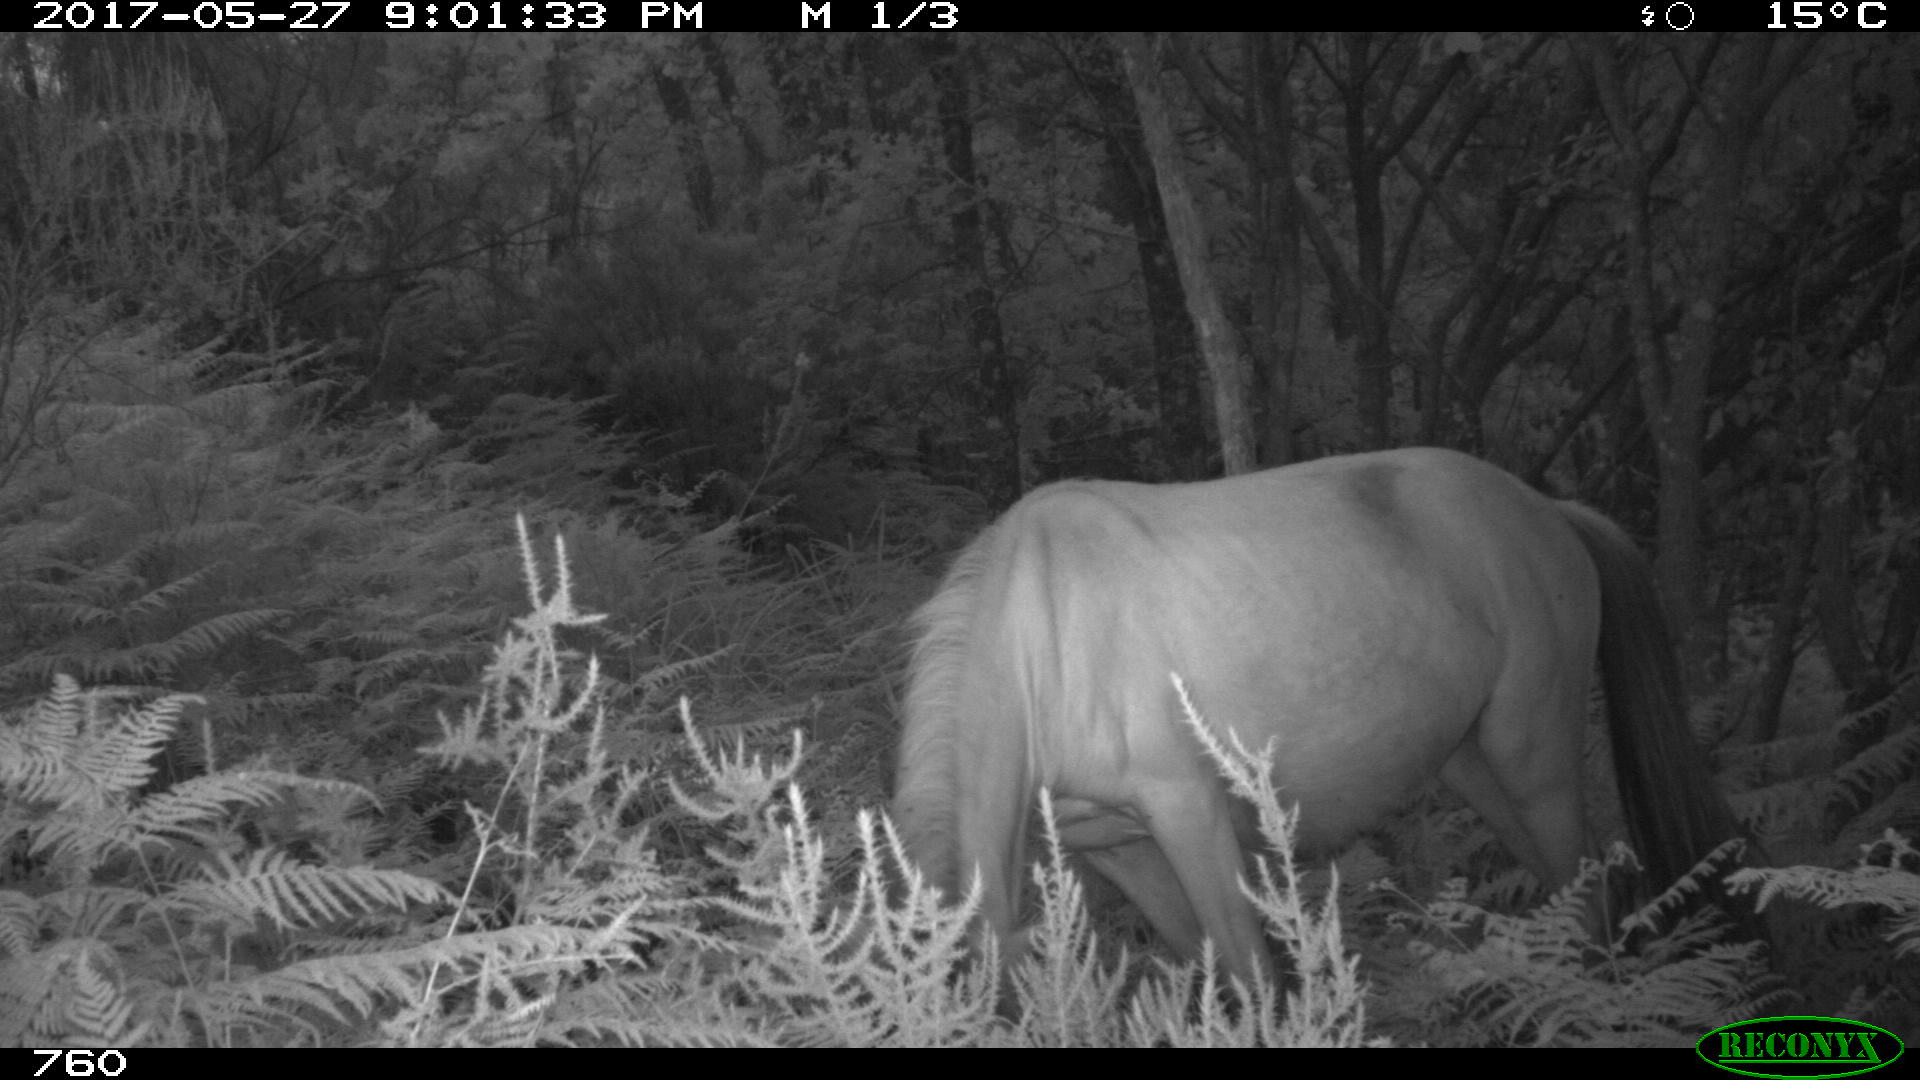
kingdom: Animalia
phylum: Chordata
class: Mammalia
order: Perissodactyla
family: Equidae
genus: Equus
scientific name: Equus caballus
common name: Horse
